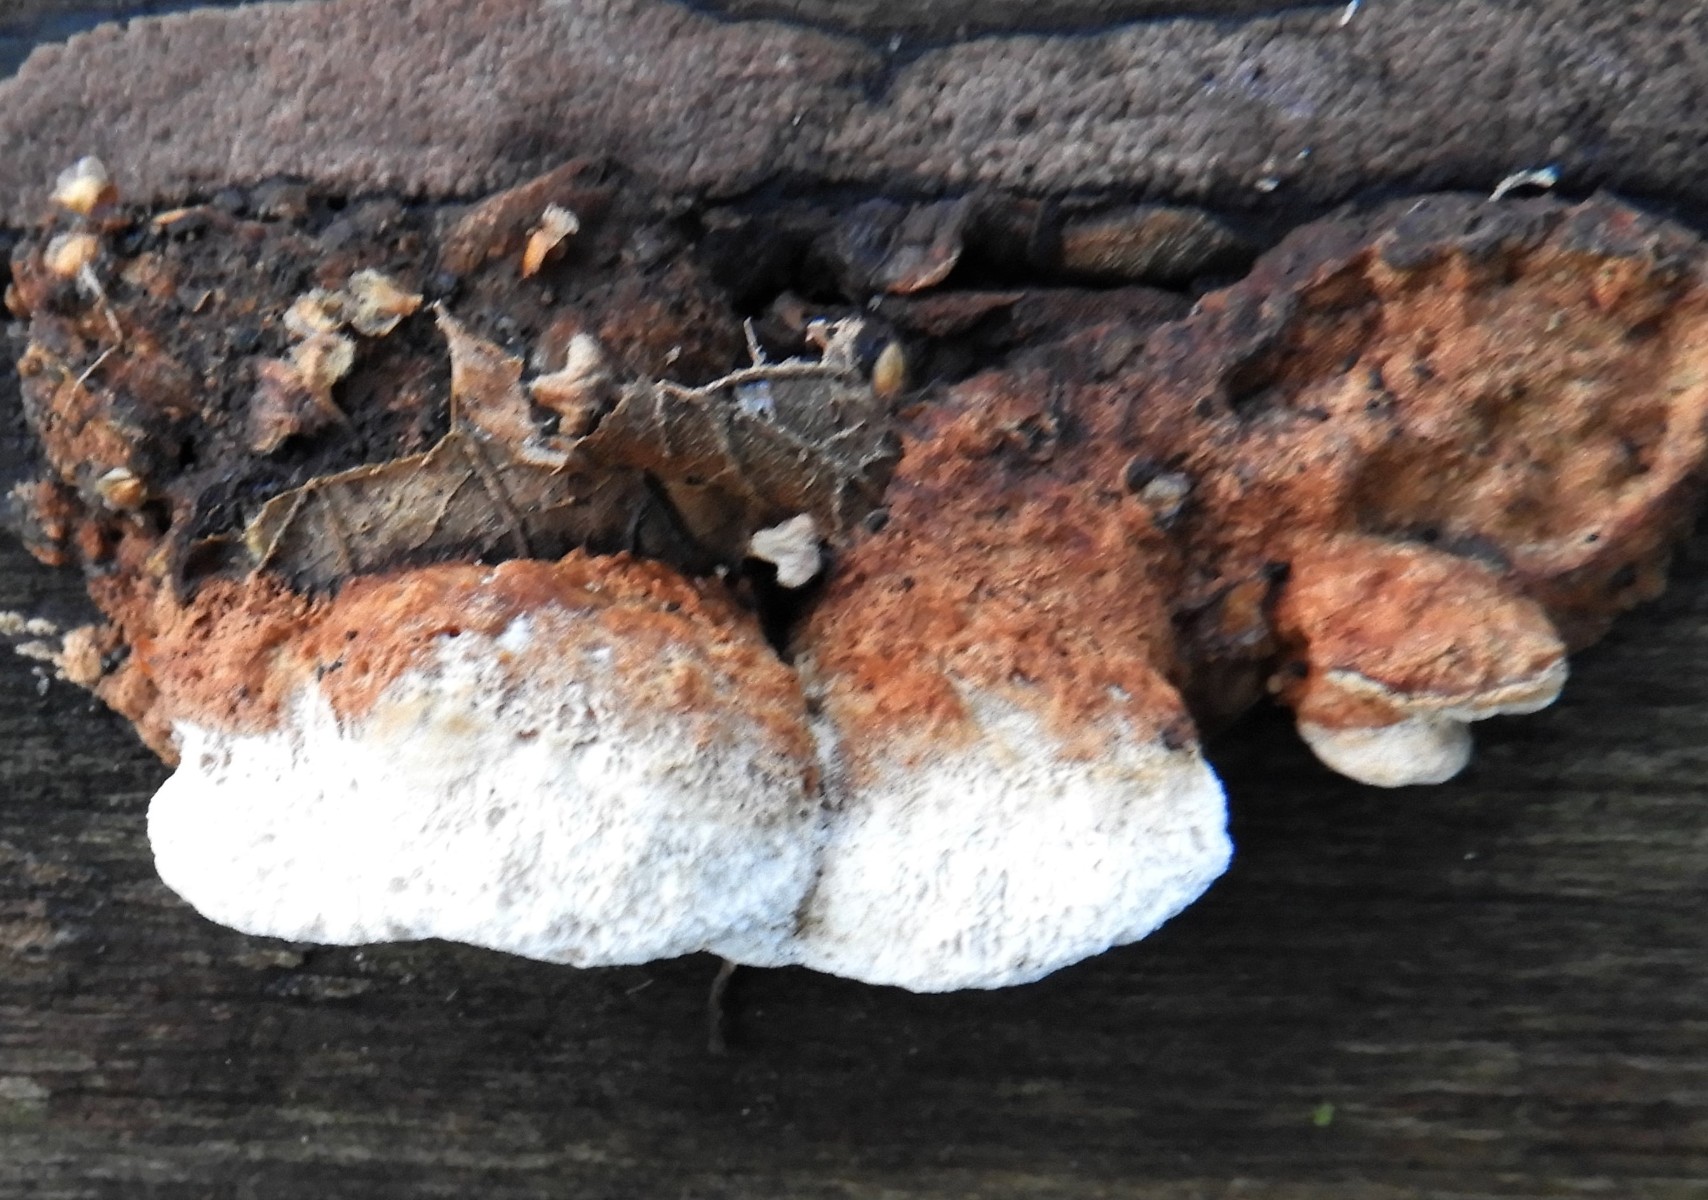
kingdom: Fungi
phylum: Basidiomycota
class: Agaricomycetes
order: Polyporales
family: Incrustoporiaceae
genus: Skeletocutis
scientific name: Skeletocutis nemoralis
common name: stor krystalporesvamp
